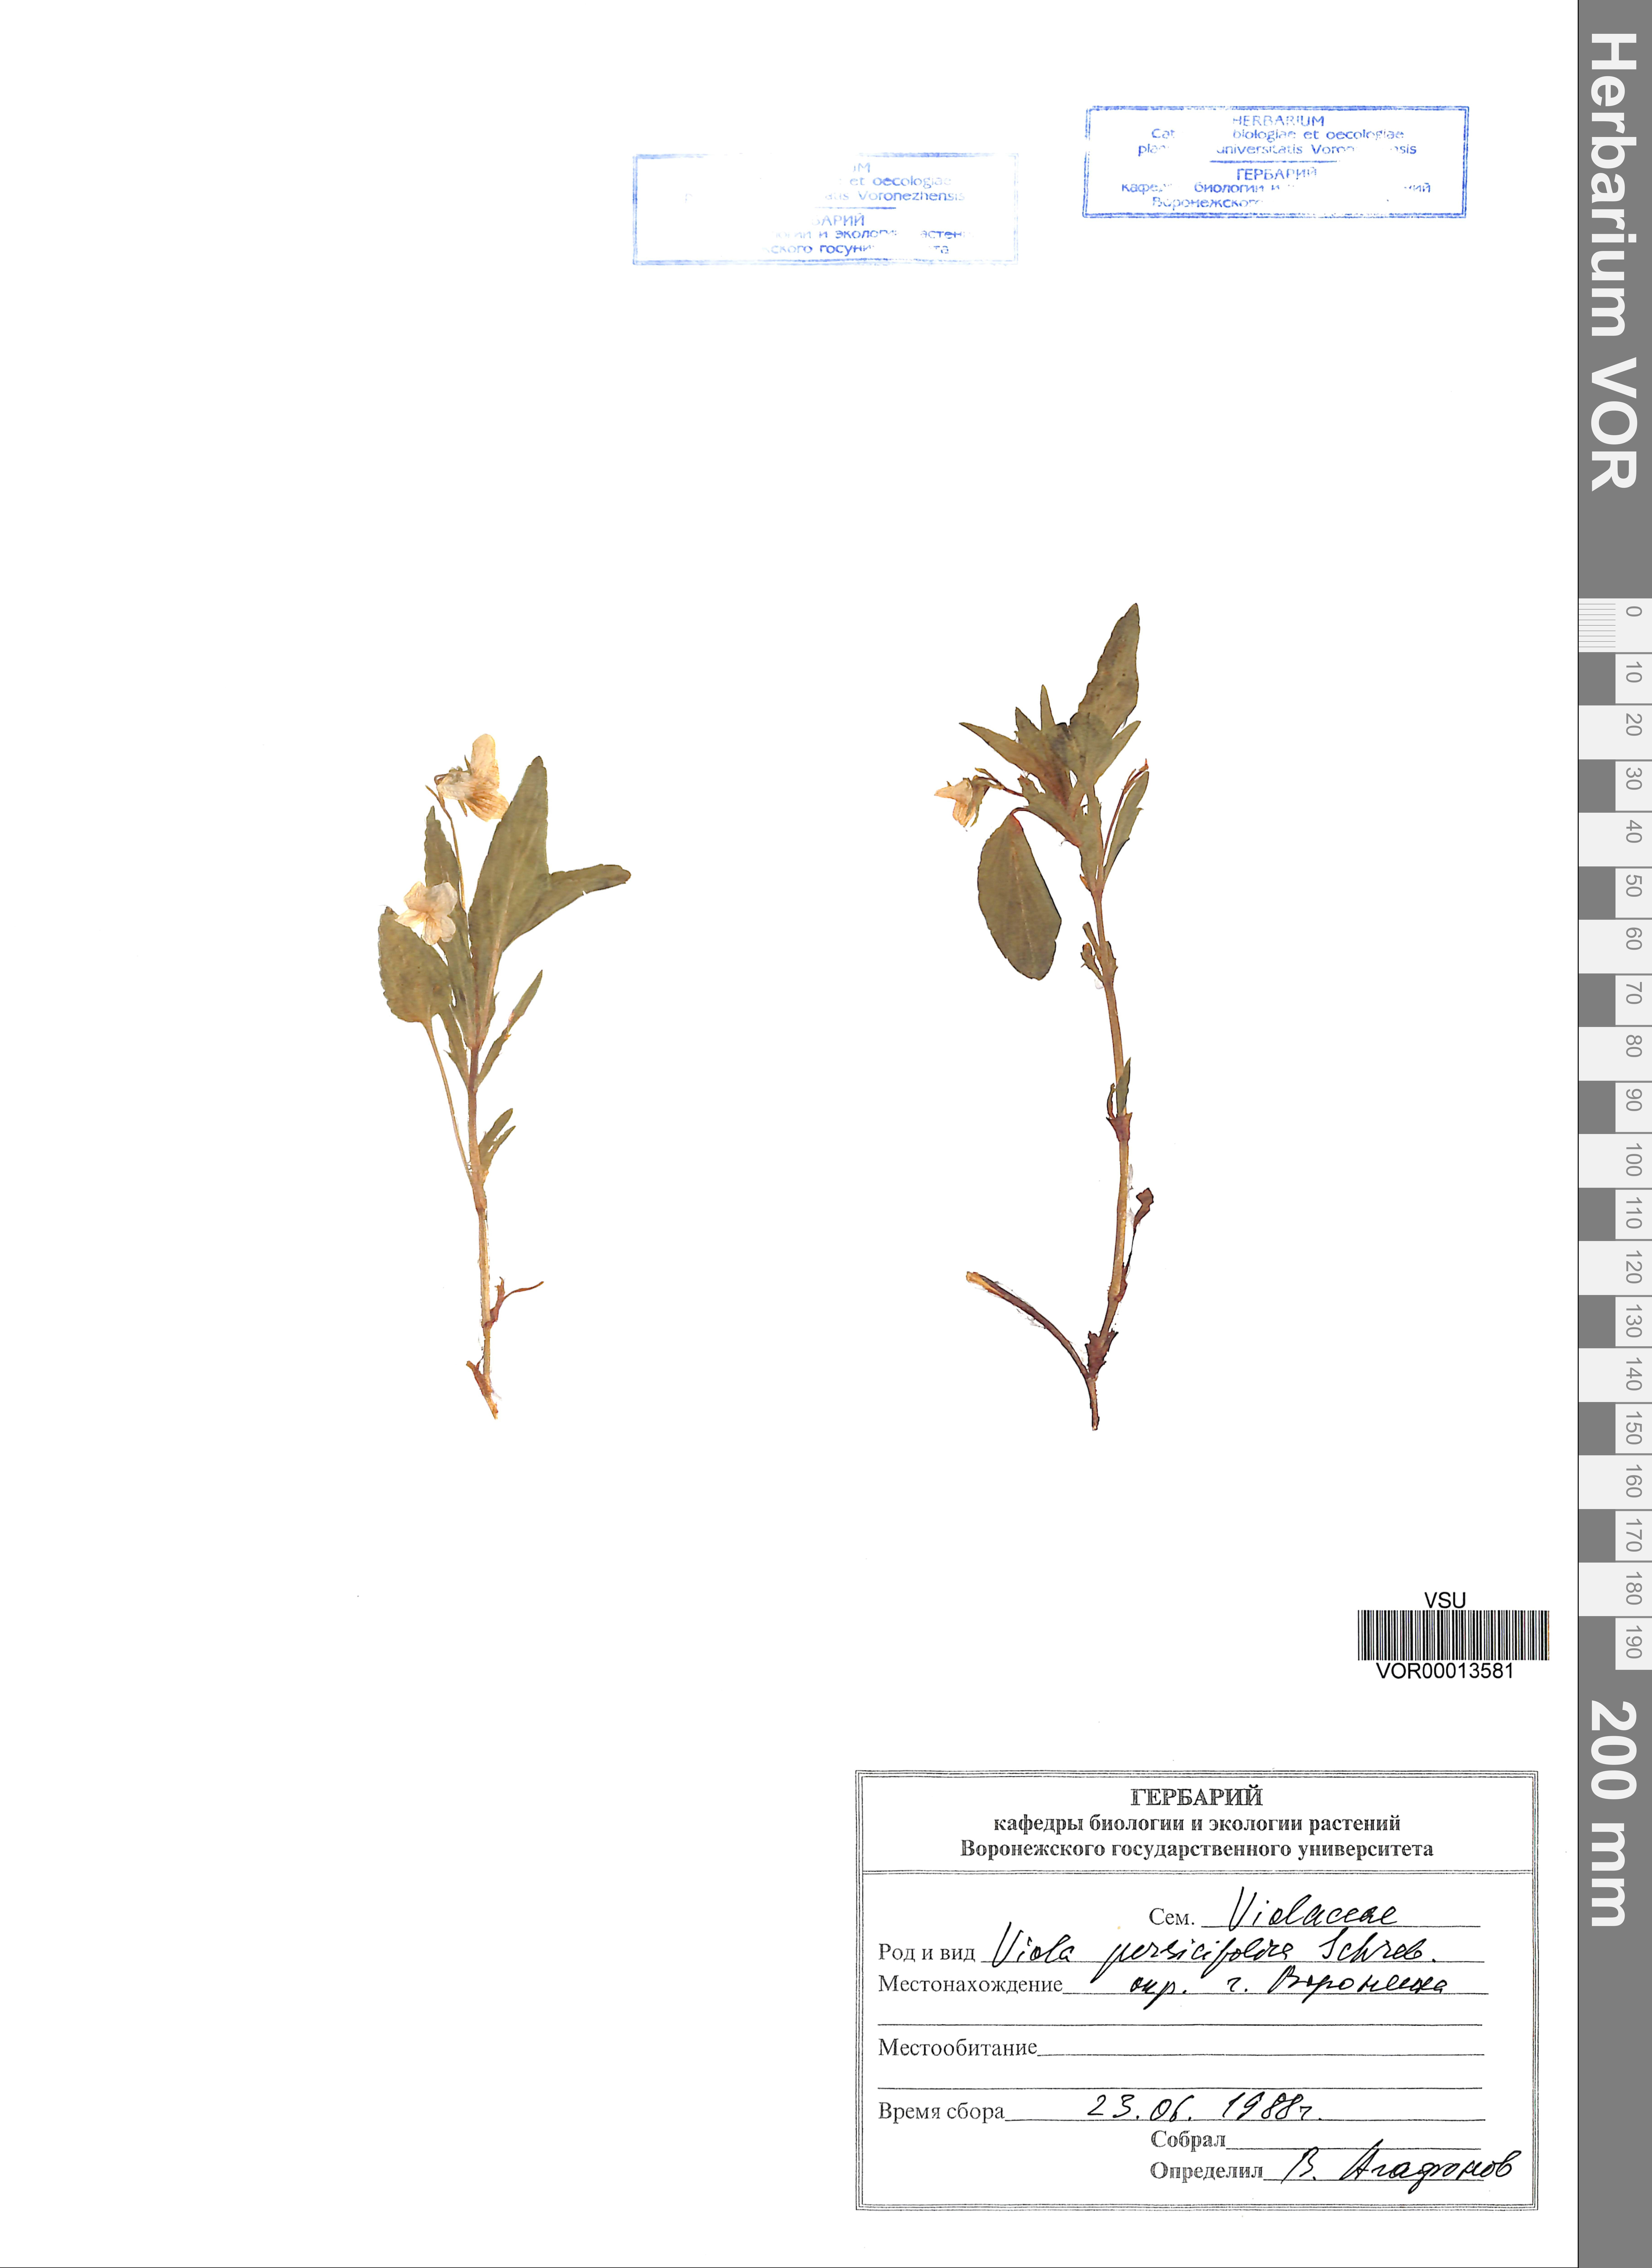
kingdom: Plantae
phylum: Tracheophyta
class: Magnoliopsida
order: Malpighiales
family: Violaceae
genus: Viola
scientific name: Viola stagnina
